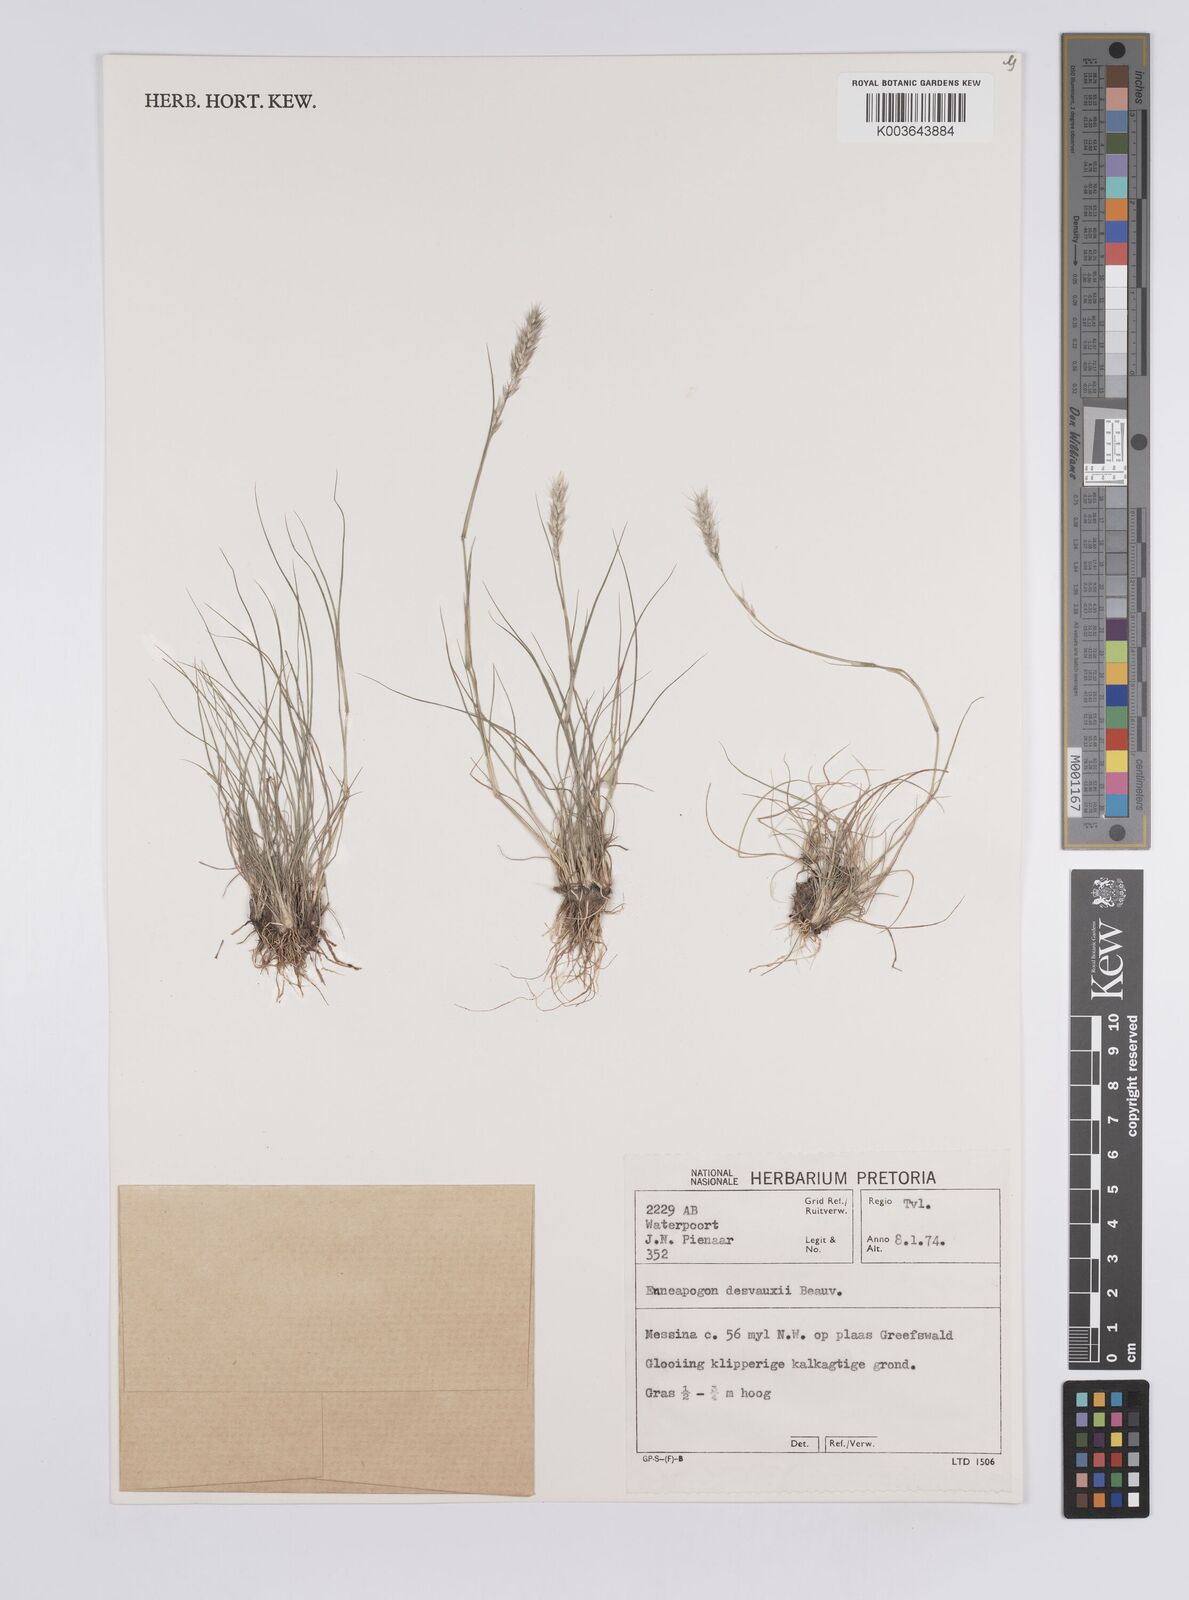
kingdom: Plantae
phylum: Tracheophyta
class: Liliopsida
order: Poales
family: Poaceae
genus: Enneapogon
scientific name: Enneapogon desvauxii
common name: Feather pappus grass
